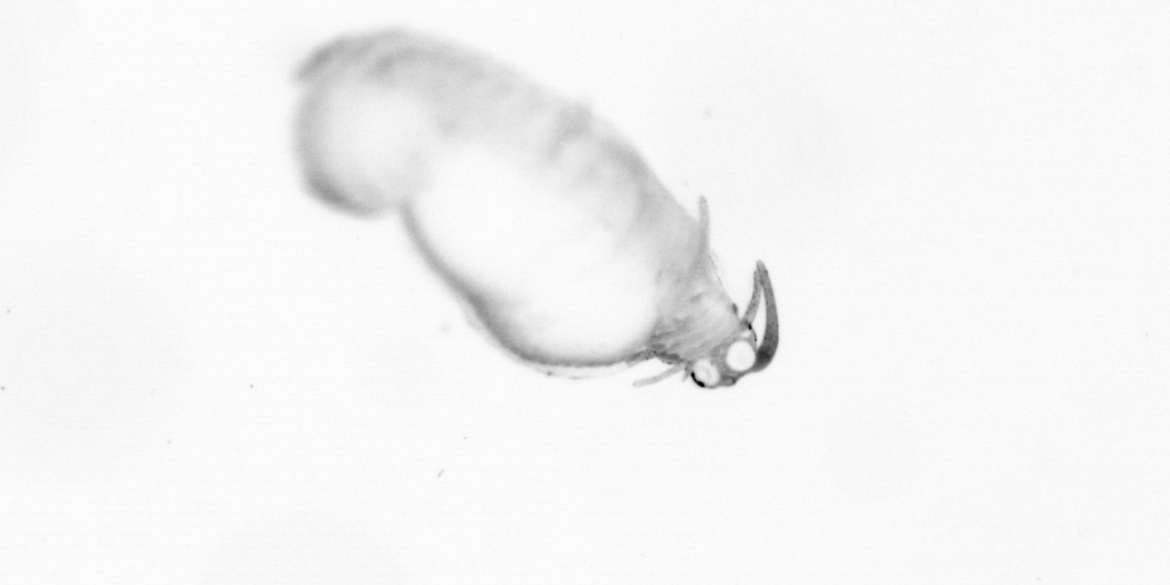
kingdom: Animalia
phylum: Annelida
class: Polychaeta
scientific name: Polychaeta
